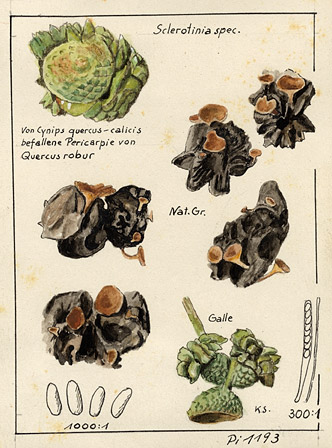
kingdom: Fungi
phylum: Ascomycota
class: Leotiomycetes
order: Helotiales
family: Sclerotiniaceae
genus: Sclerotinia
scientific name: Sclerotinia
